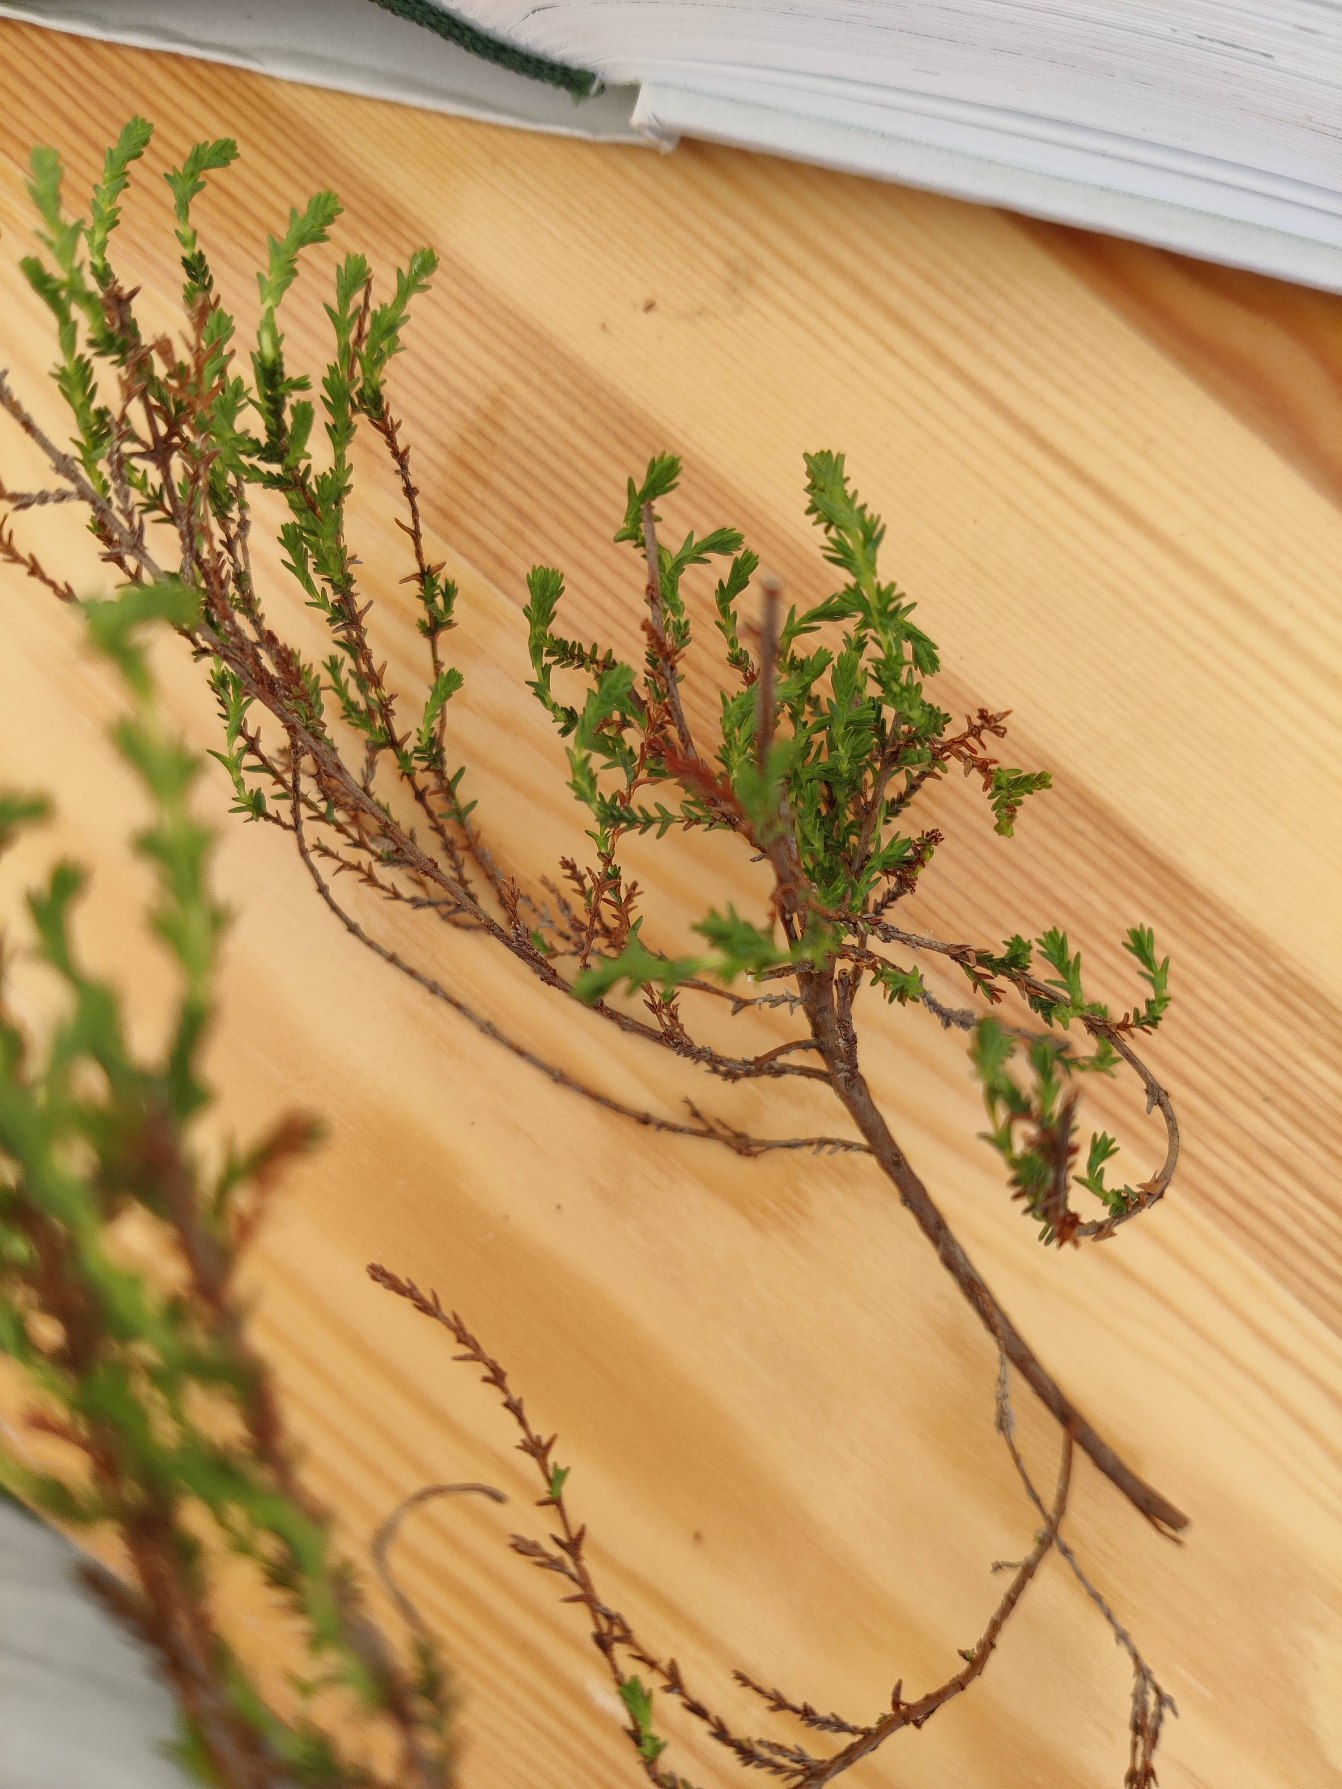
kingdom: Plantae
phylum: Tracheophyta
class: Magnoliopsida
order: Ericales
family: Ericaceae
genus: Calluna
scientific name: Calluna vulgaris
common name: Hedelyng
